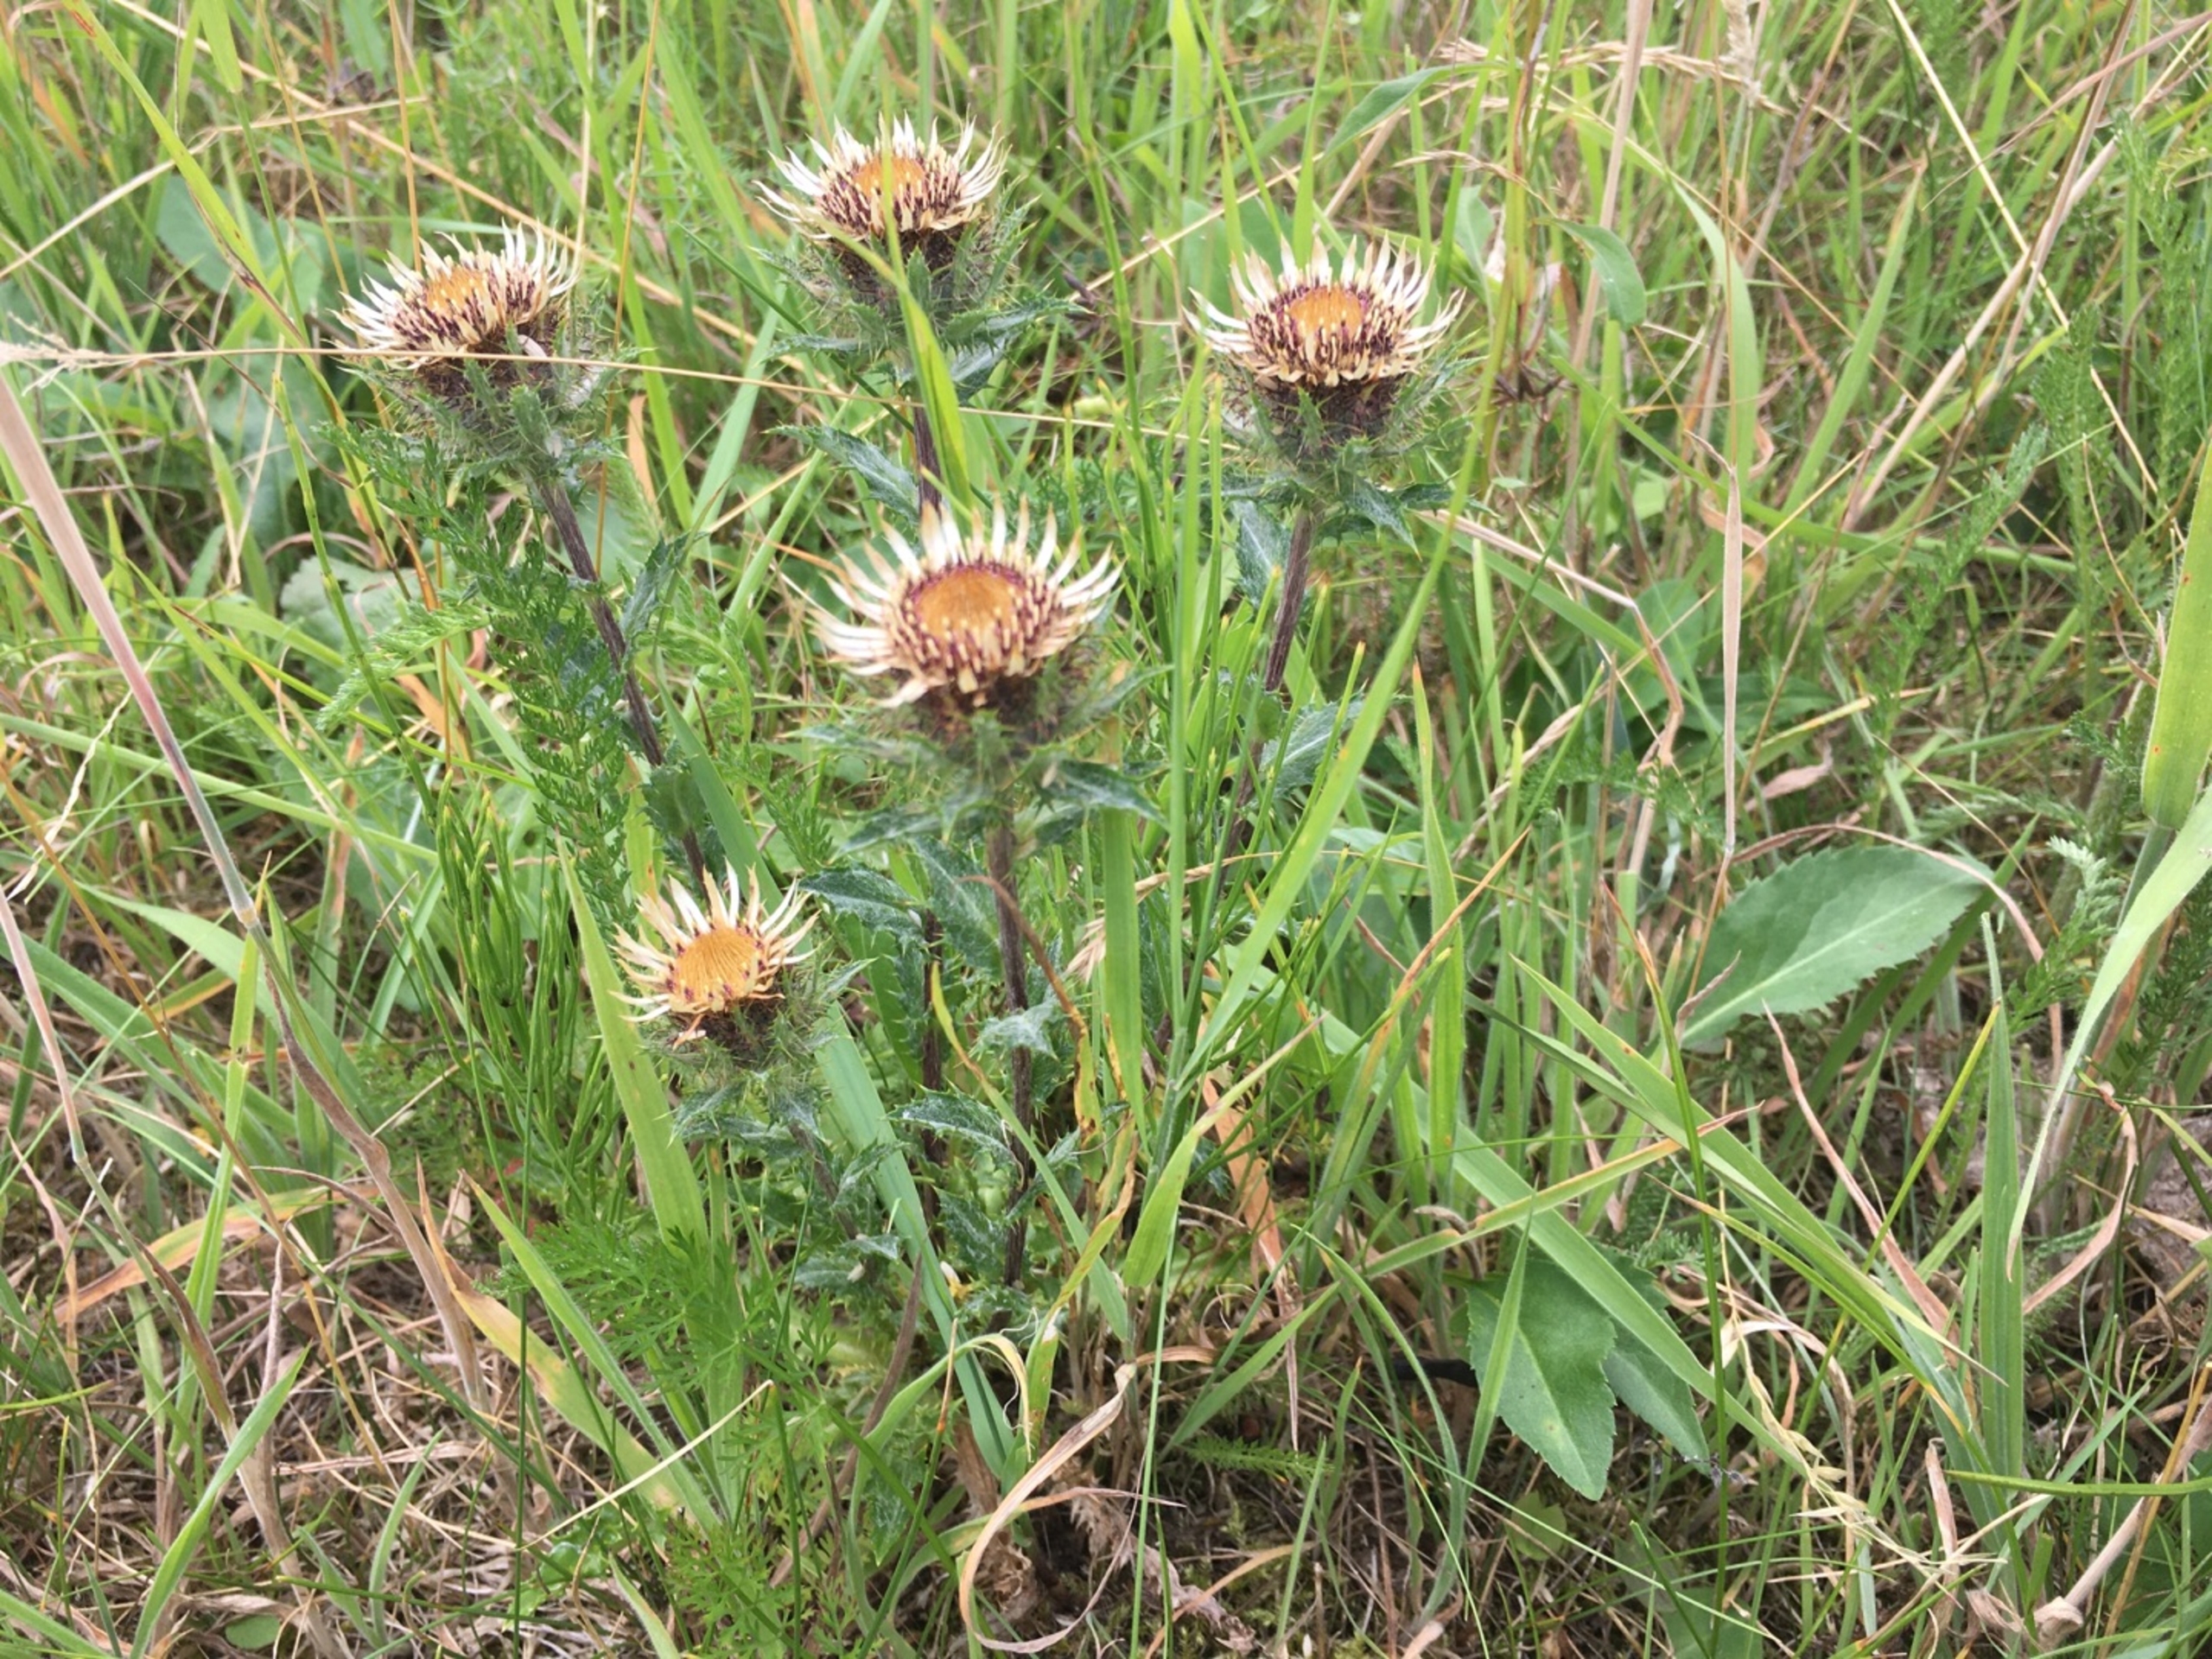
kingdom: Plantae
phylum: Tracheophyta
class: Magnoliopsida
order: Asterales
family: Asteraceae
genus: Carlina
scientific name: Carlina vulgaris
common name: Bakketidsel (underart)
